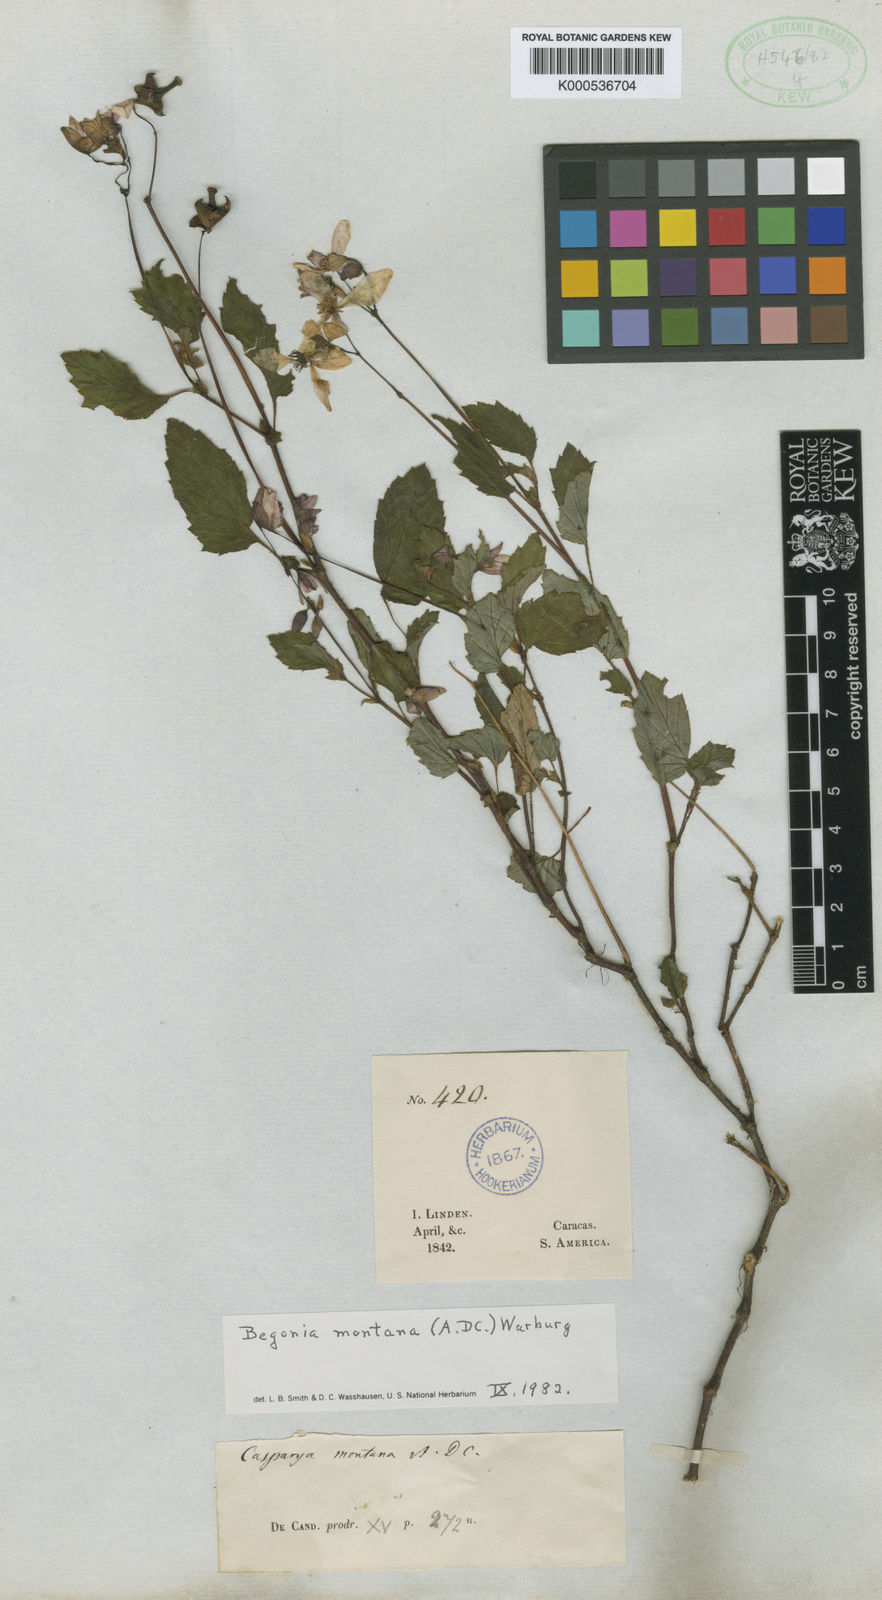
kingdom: Plantae
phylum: Tracheophyta
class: Magnoliopsida
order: Cucurbitales
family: Begoniaceae
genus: Begonia
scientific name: Begonia montana
